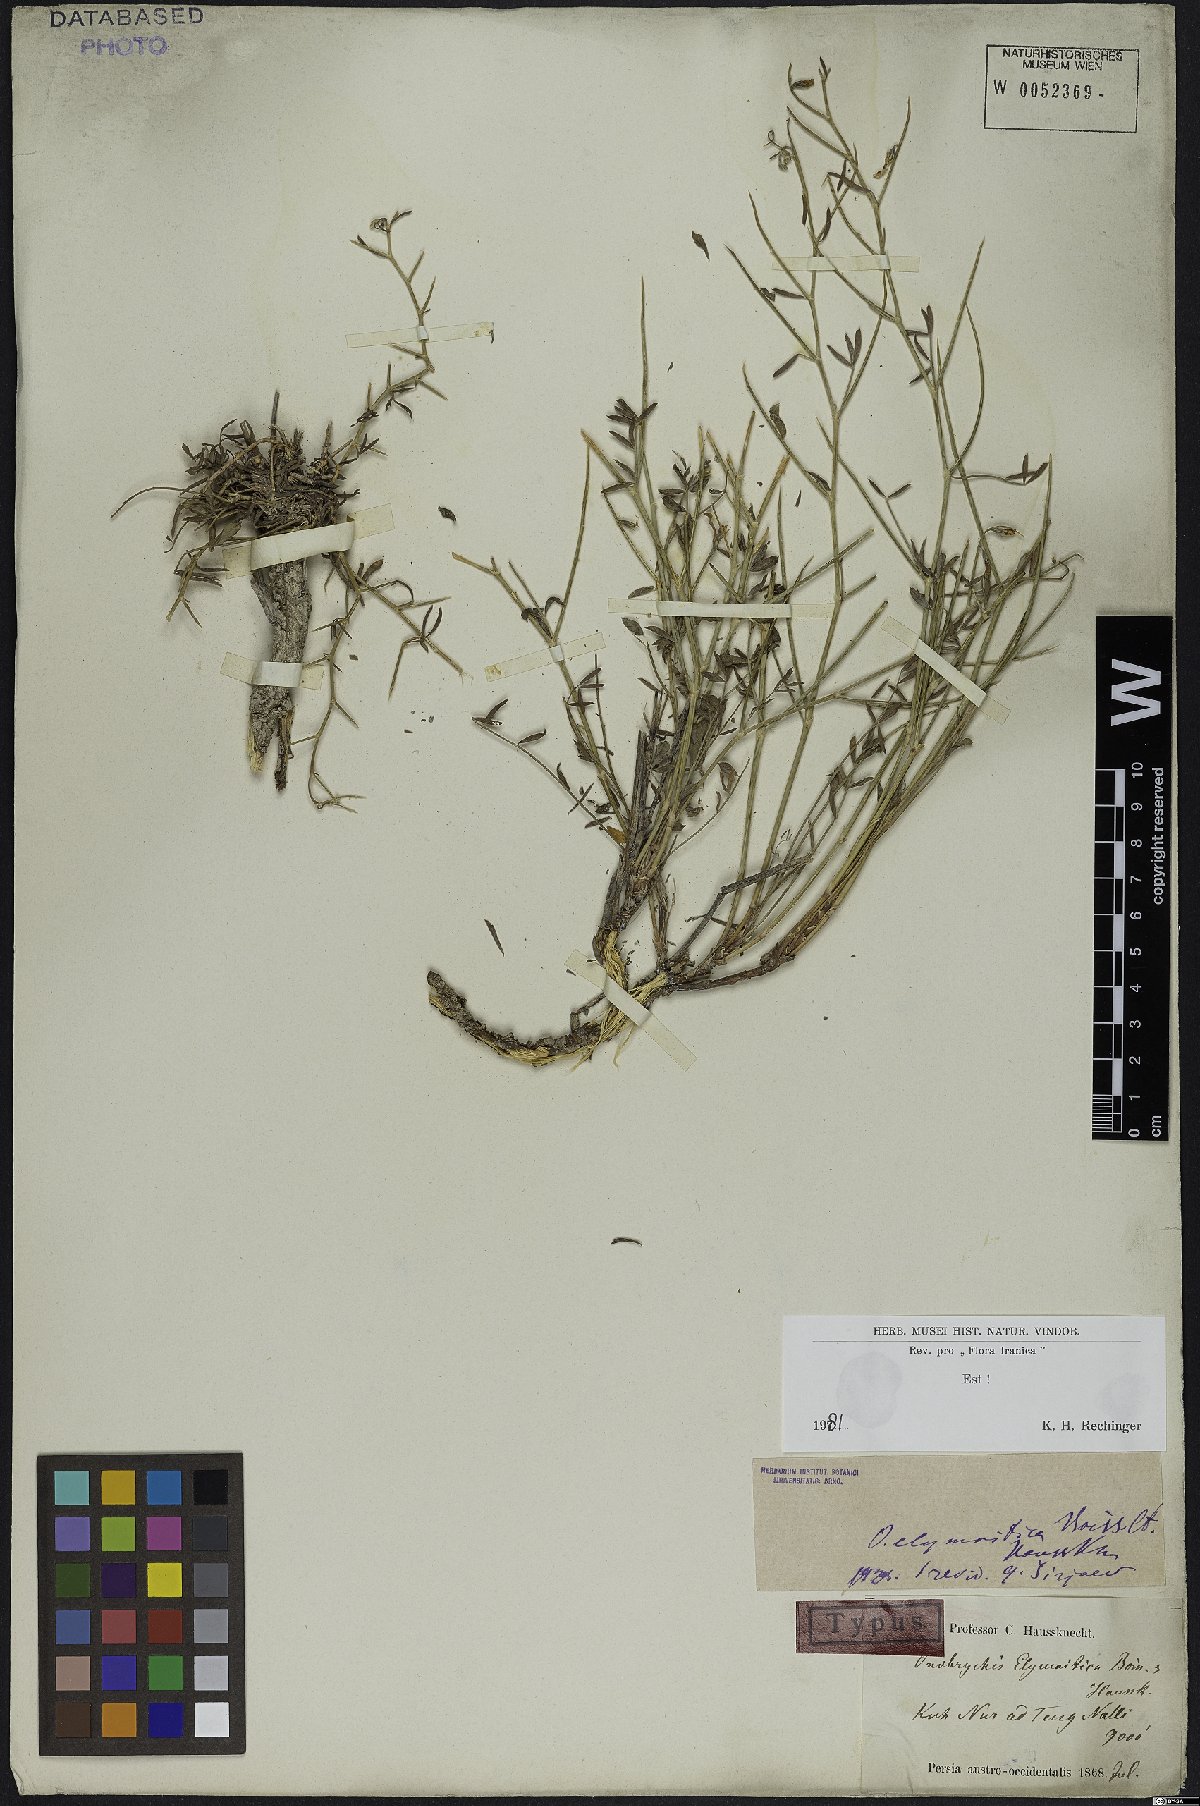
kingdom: Plantae
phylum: Tracheophyta
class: Magnoliopsida
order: Fabales
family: Fabaceae
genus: Onobrychis
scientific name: Onobrychis elymaitica
